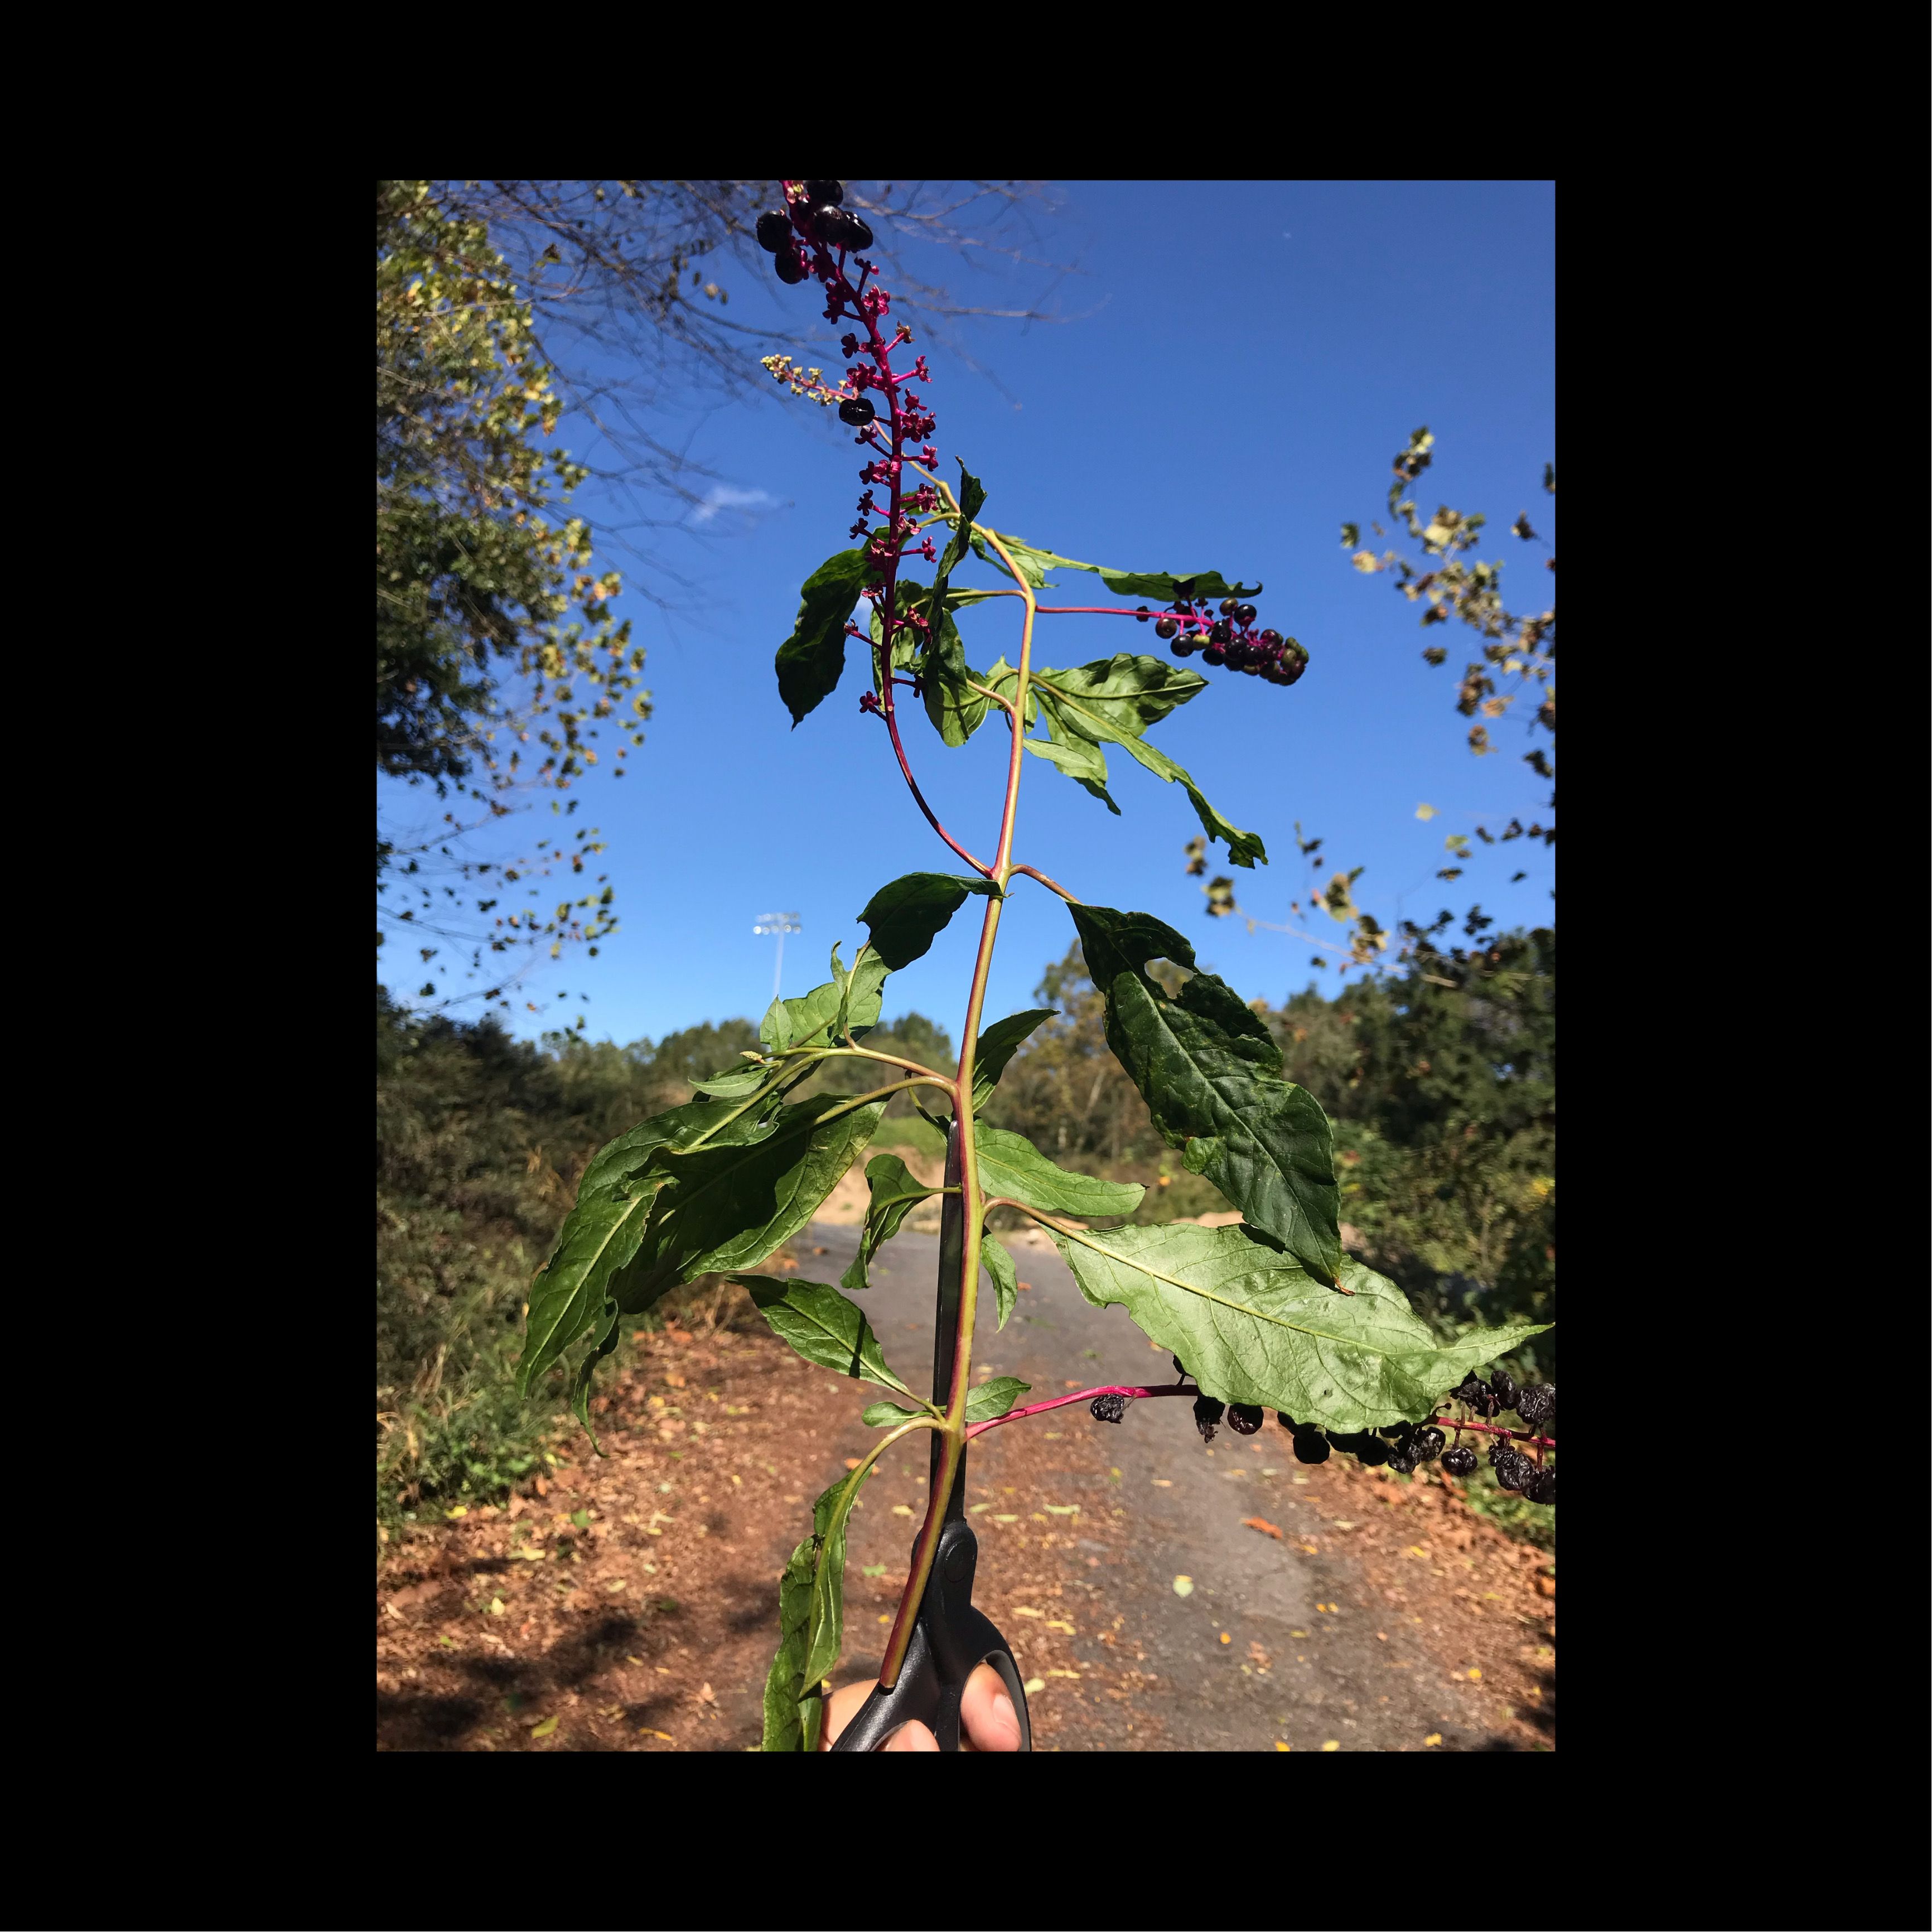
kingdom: Plantae
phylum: Tracheophyta
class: Magnoliopsida
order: Caryophyllales
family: Phytolaccaceae
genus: Phytolacca
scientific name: Phytolacca americana
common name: Common Pokeweed
